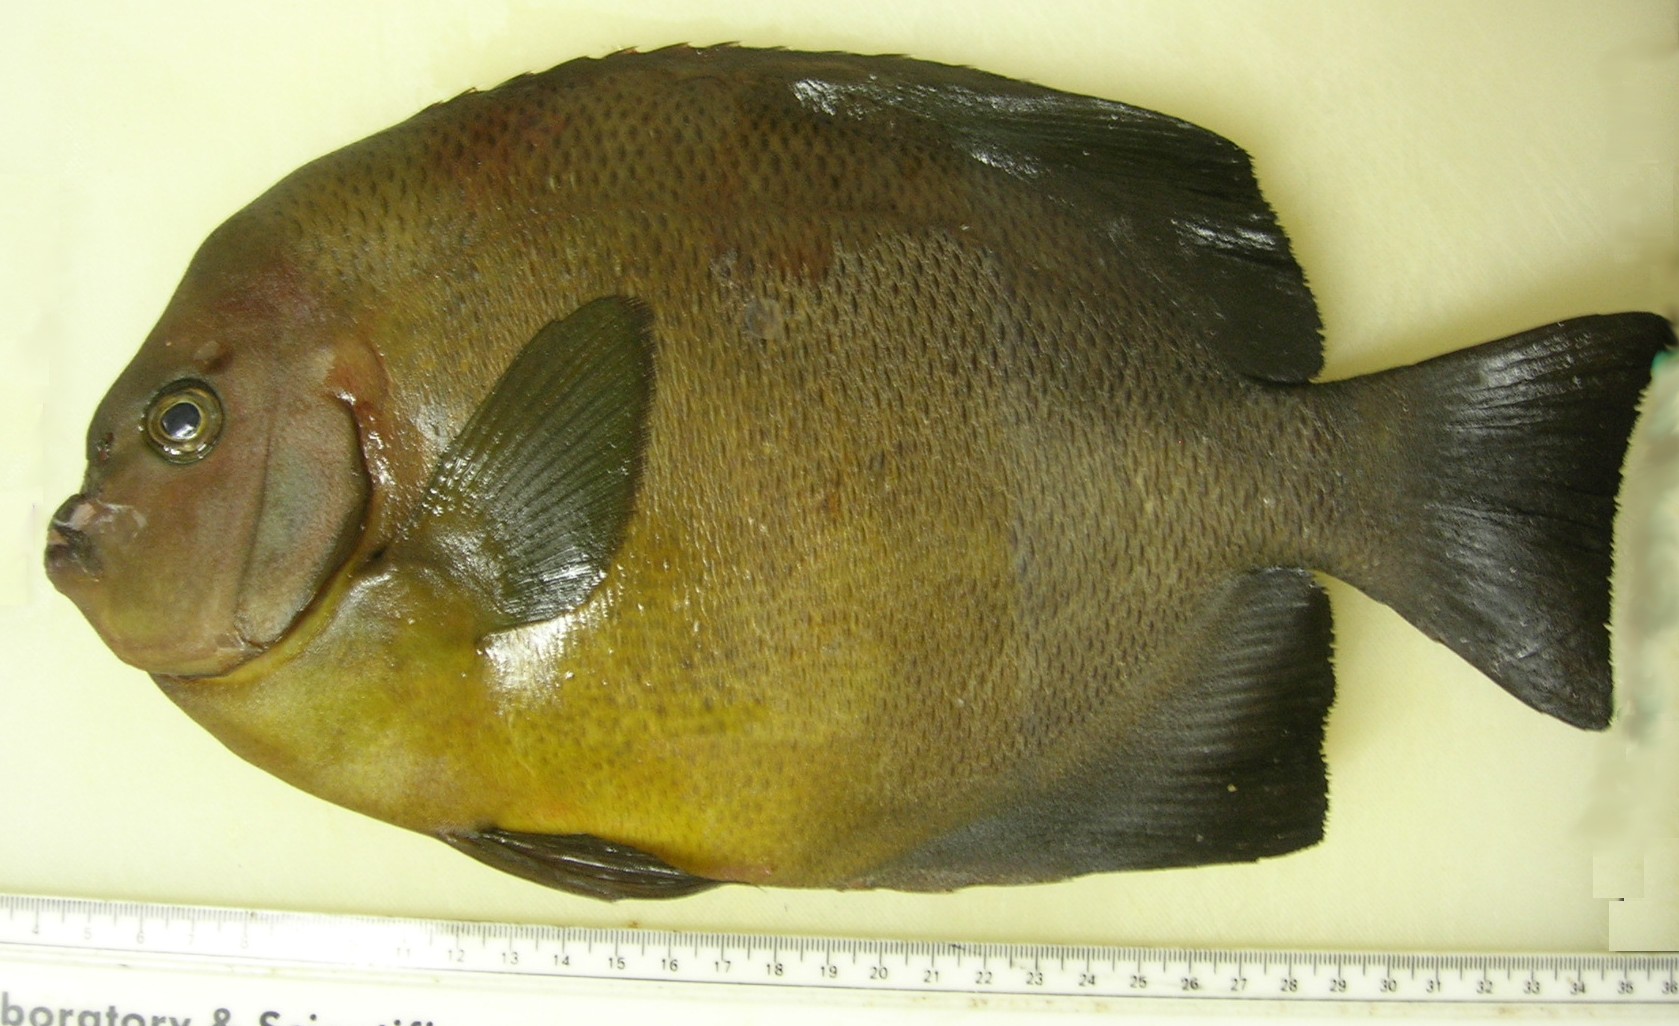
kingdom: Animalia
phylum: Chordata
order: Perciformes
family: Pomacanthidae
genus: Pomacanthus
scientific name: Pomacanthus rhomboides
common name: Old woman
